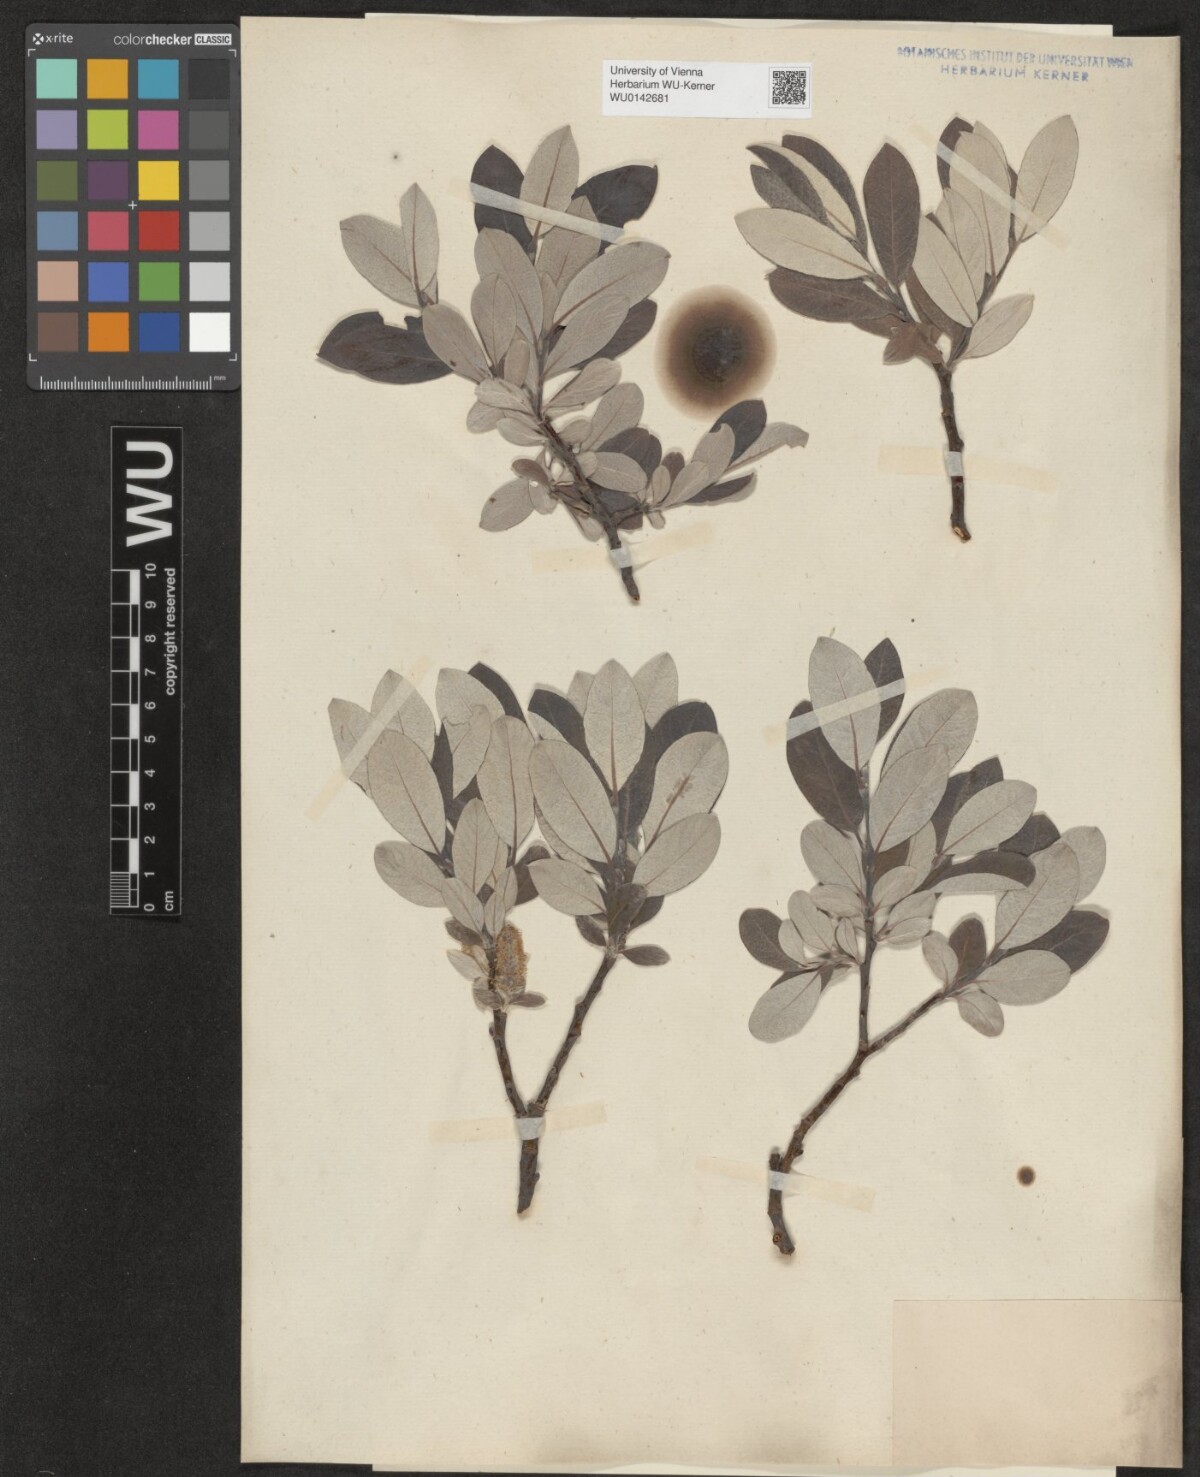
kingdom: Plantae
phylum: Tracheophyta
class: Magnoliopsida
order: Malpighiales
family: Salicaceae
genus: Salix
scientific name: Salix helvetica
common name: Swiss willow
